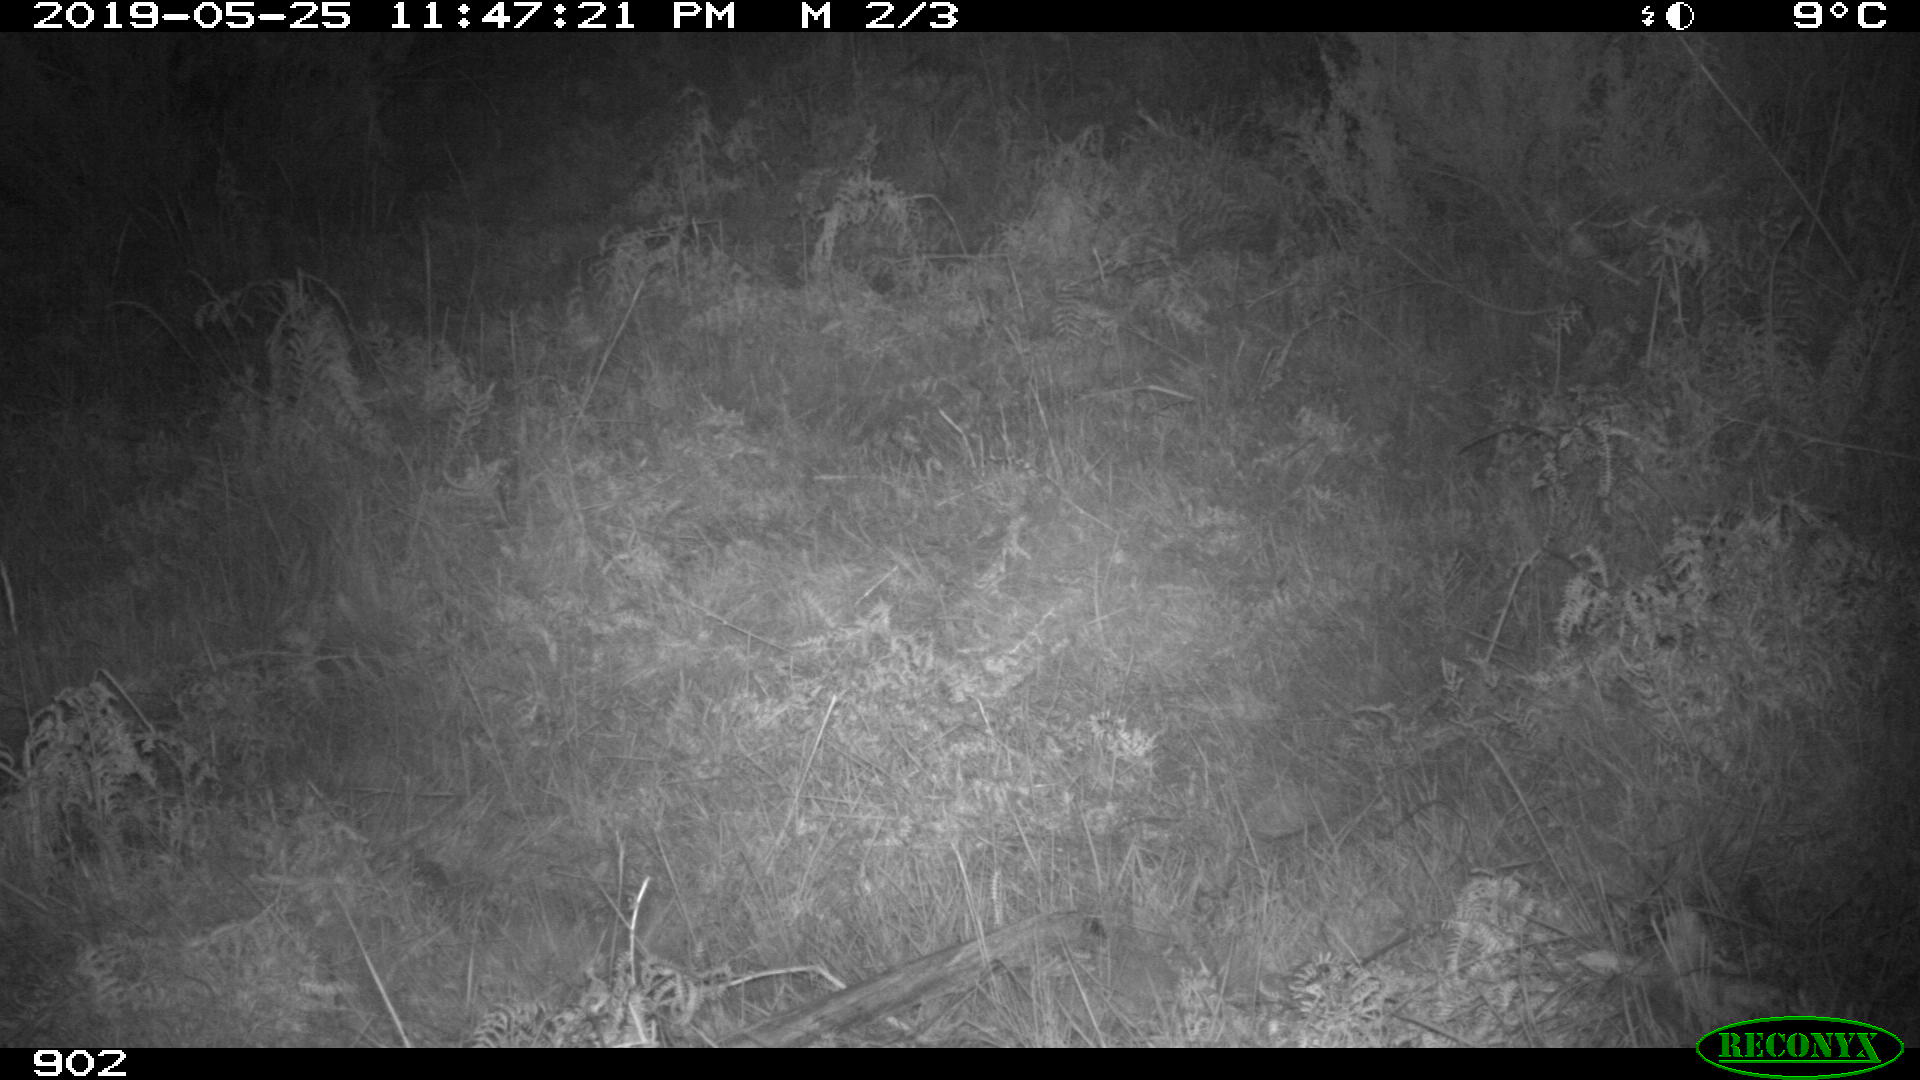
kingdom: Animalia
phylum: Chordata
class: Mammalia
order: Carnivora
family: Canidae
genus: Vulpes
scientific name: Vulpes vulpes
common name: Red fox
